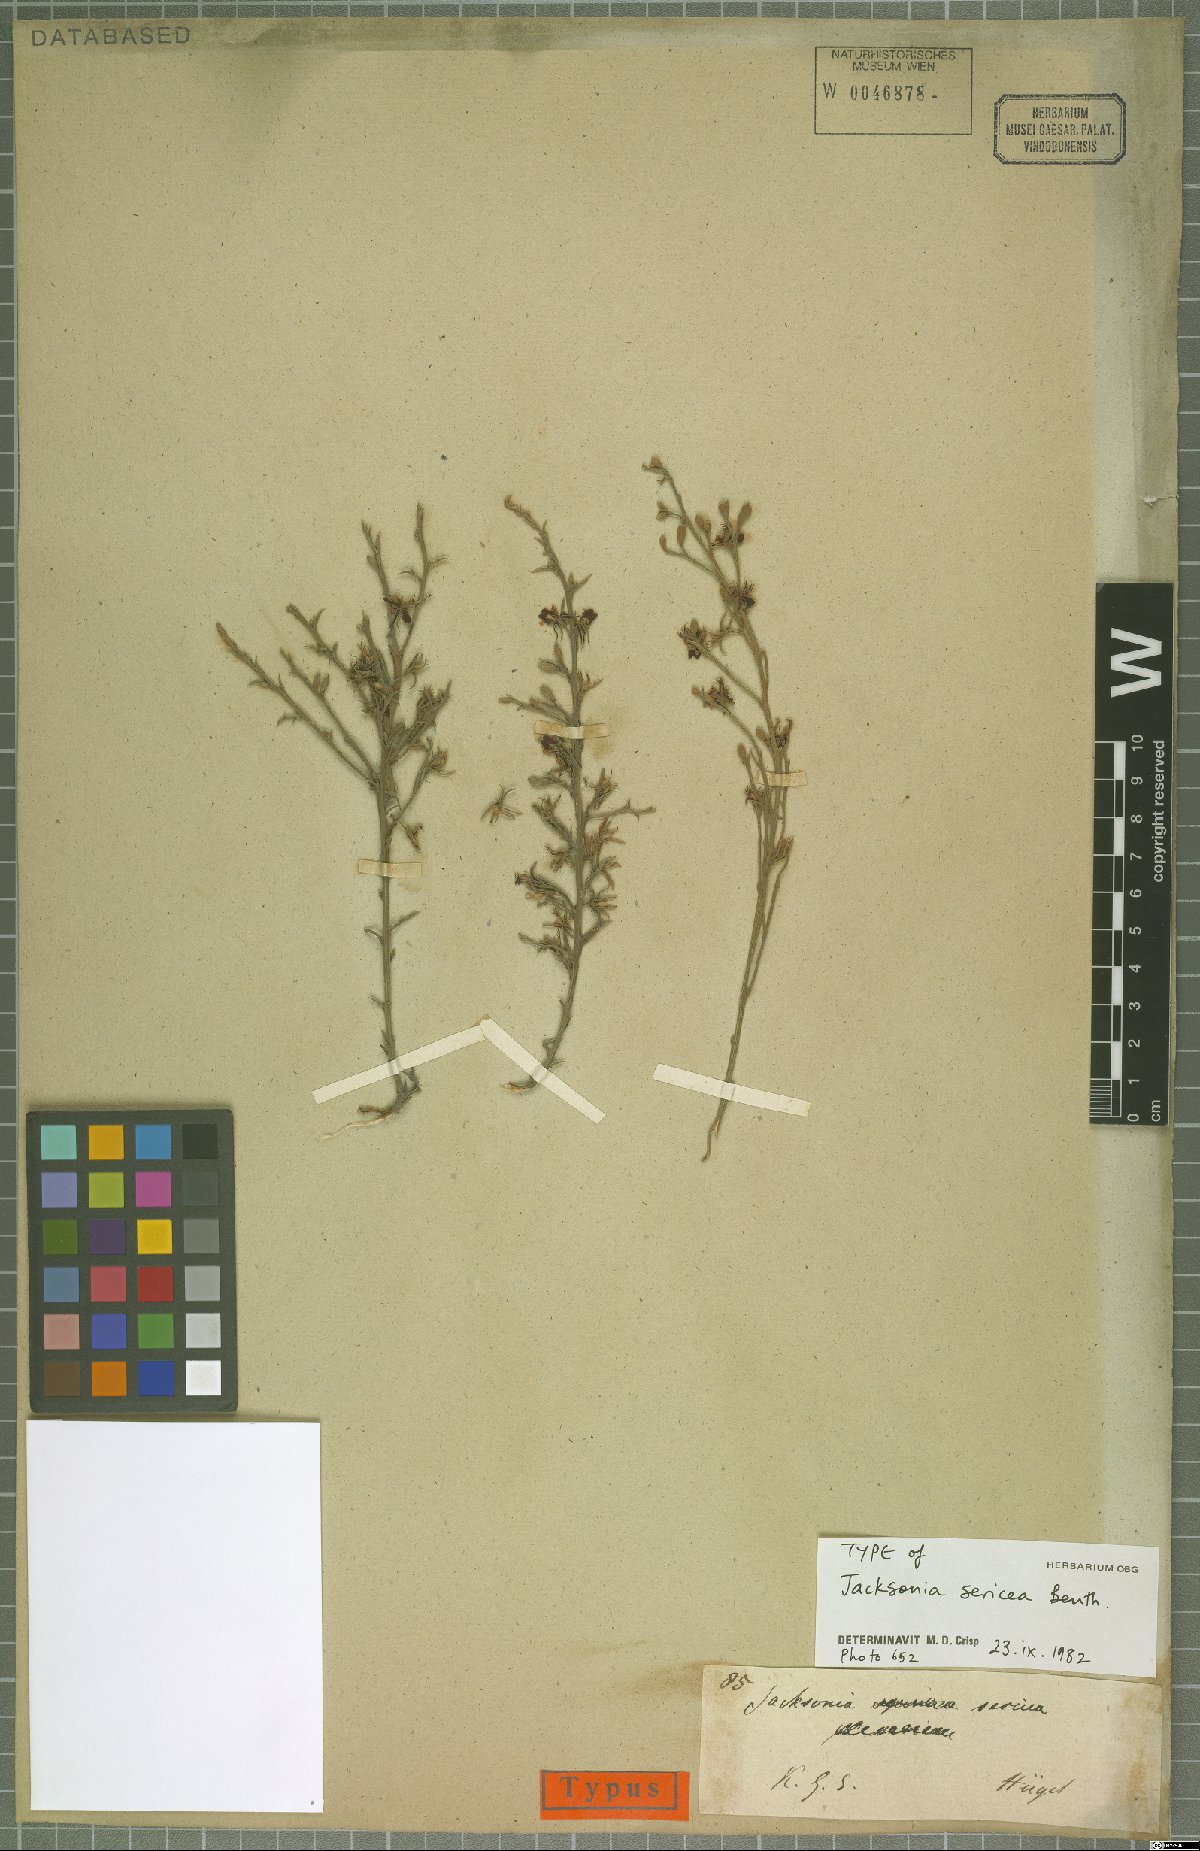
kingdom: Plantae
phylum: Tracheophyta
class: Magnoliopsida
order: Fabales
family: Fabaceae
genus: Jacksonia
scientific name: Jacksonia sericea
